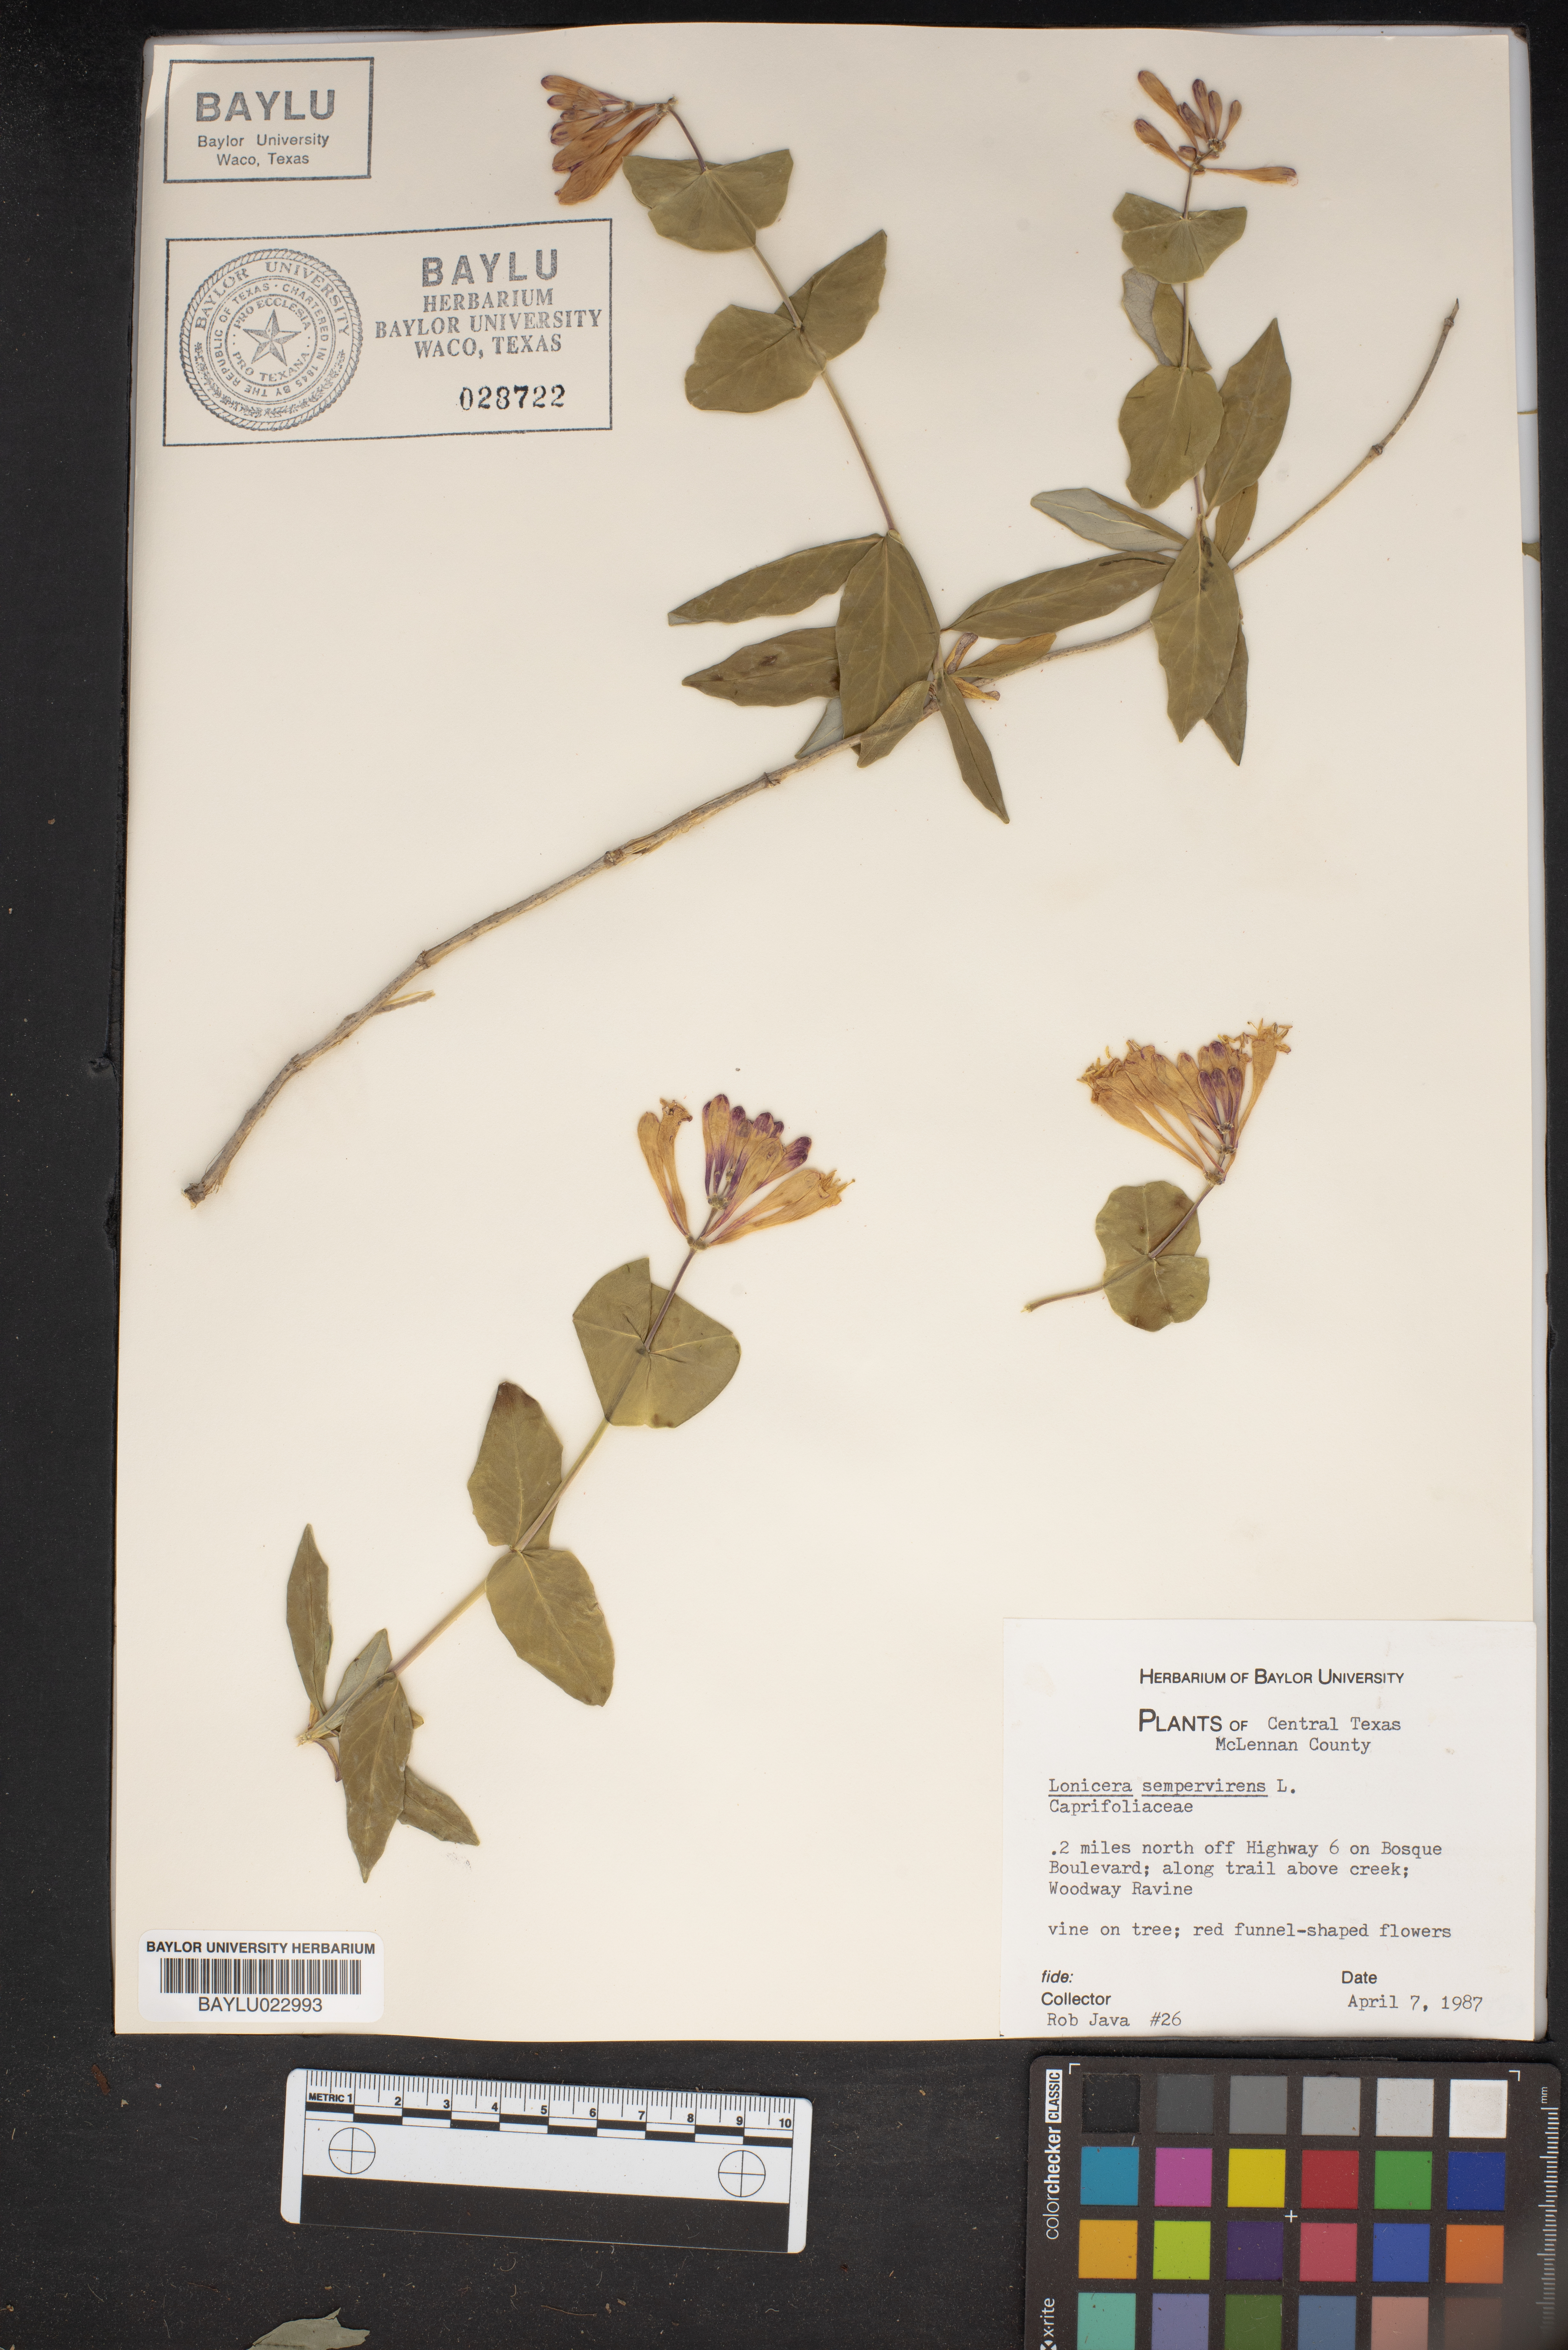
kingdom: Plantae
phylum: Tracheophyta
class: Magnoliopsida
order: Dipsacales
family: Caprifoliaceae
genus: Lonicera
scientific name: Lonicera sempervirens
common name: Coral honeysuckle
